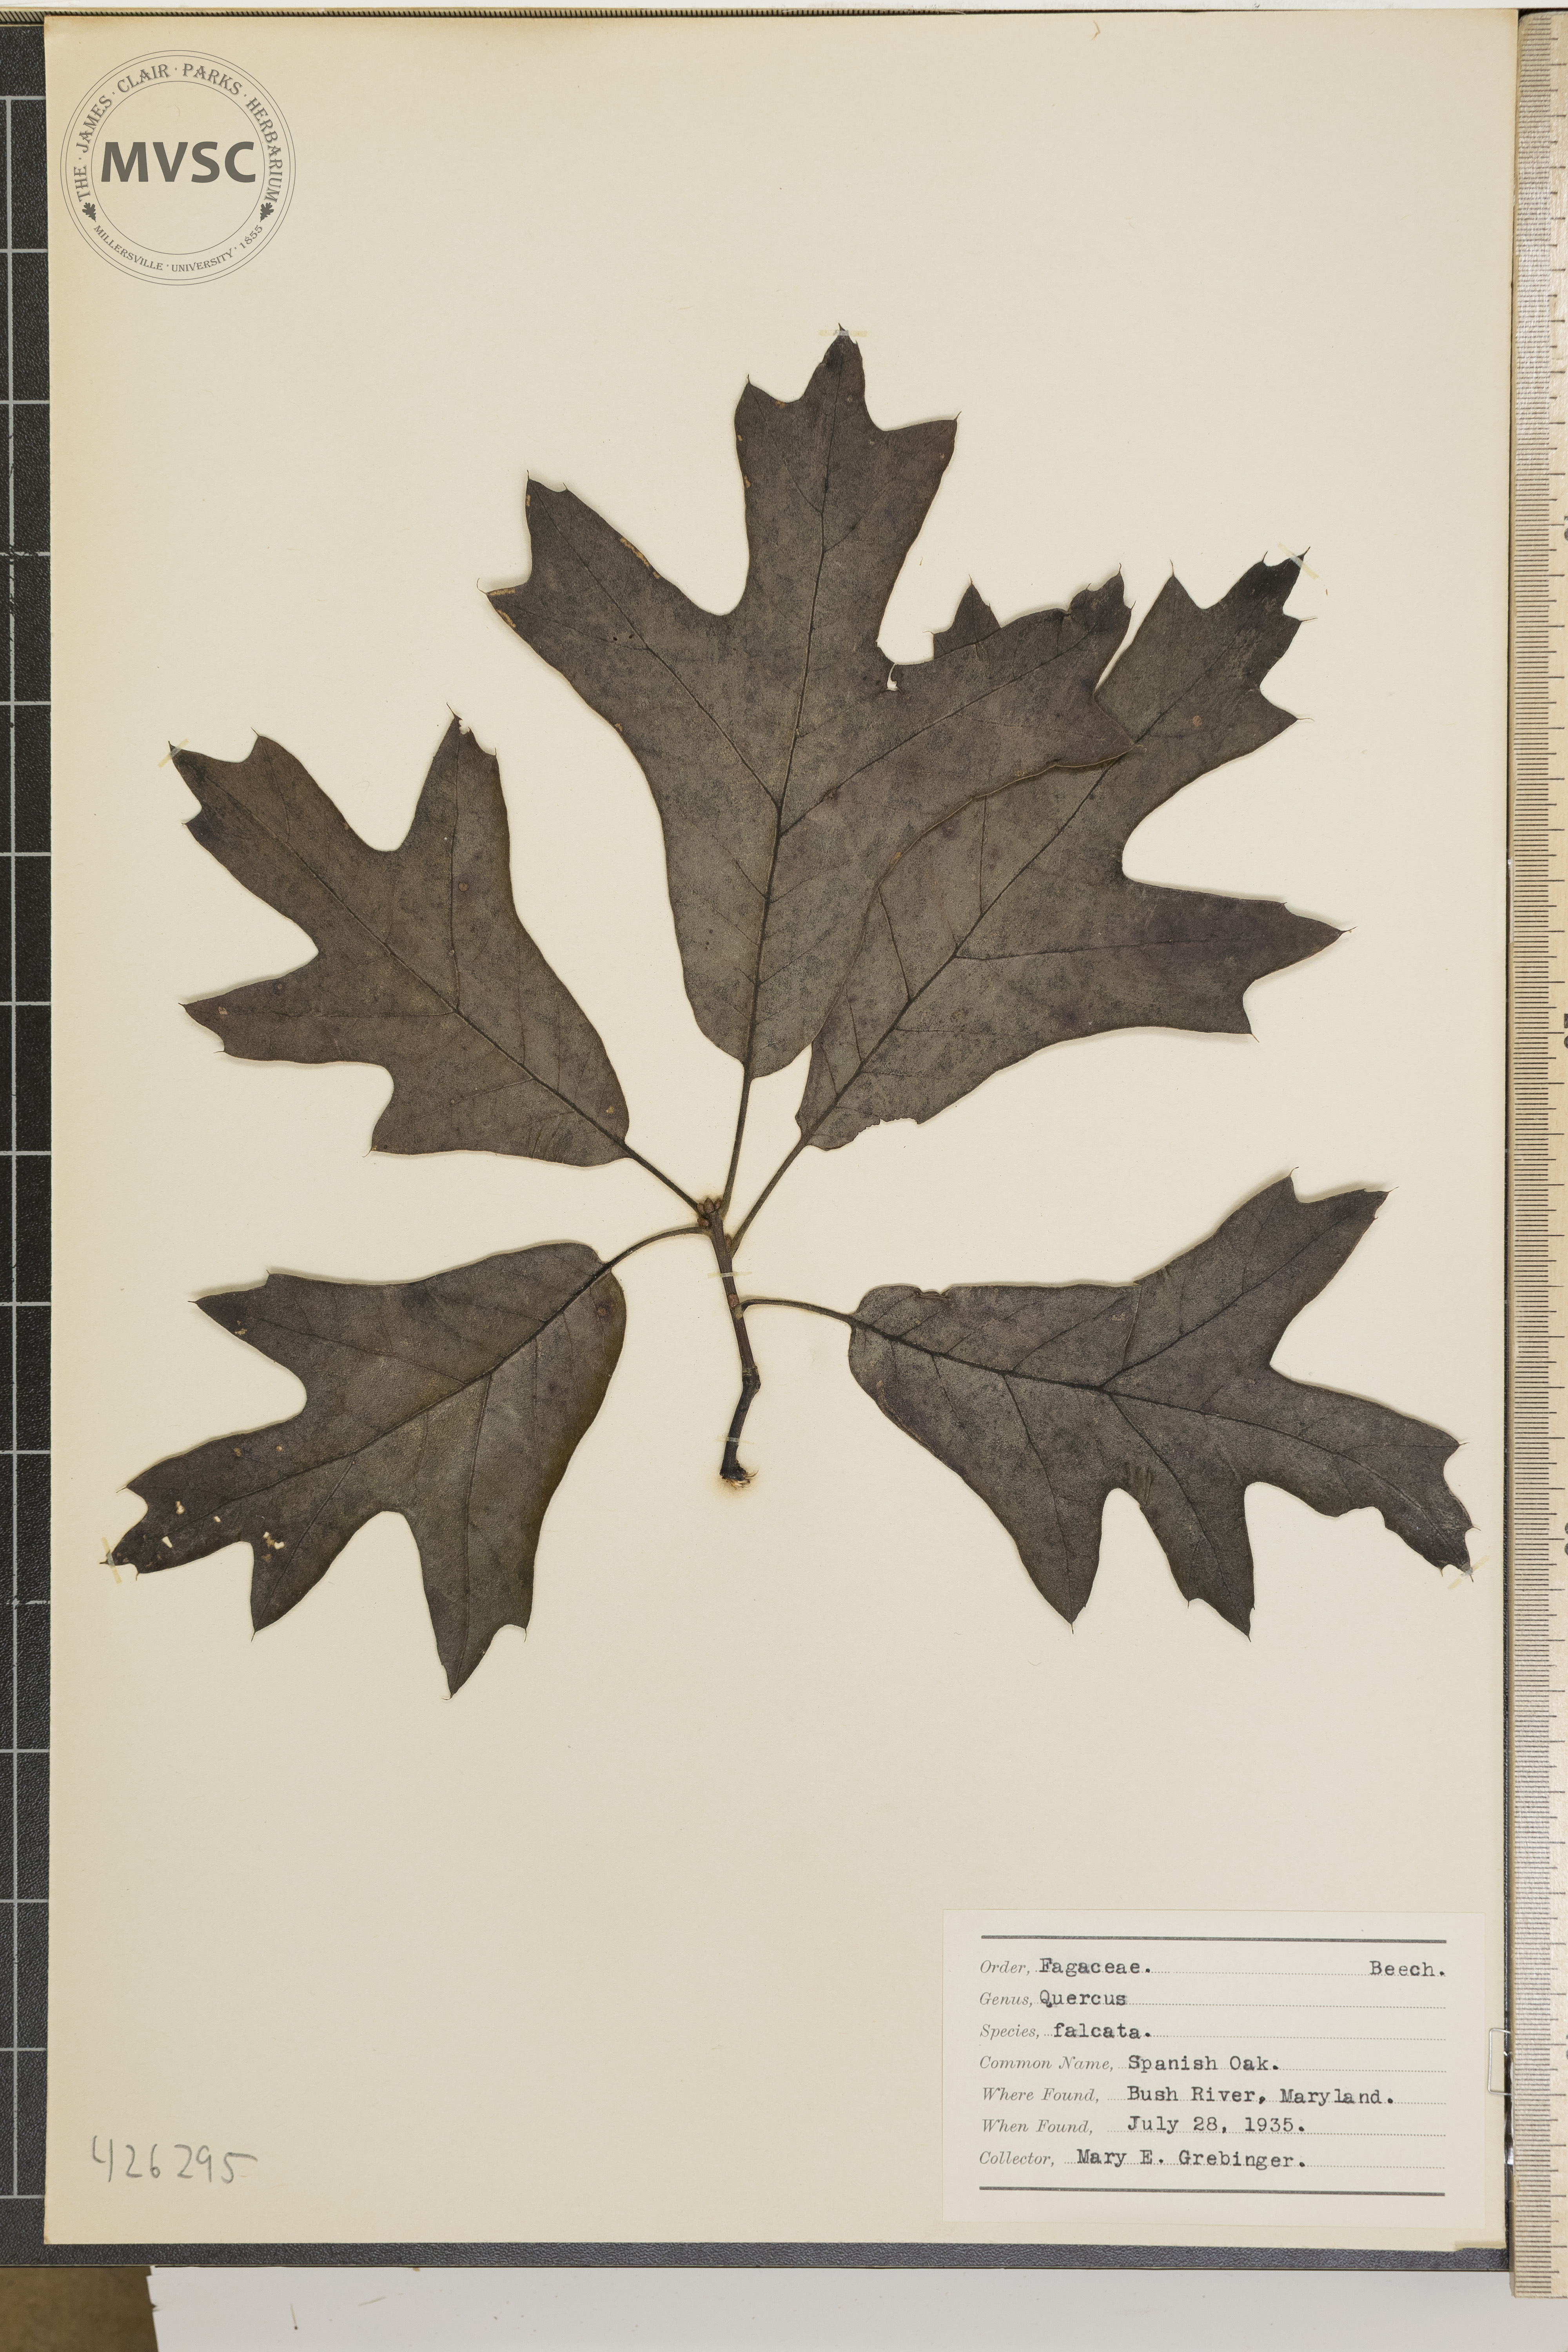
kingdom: Plantae
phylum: Tracheophyta
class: Magnoliopsida
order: Fagales
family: Fagaceae
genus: Quercus
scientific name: Quercus falcata
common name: Spanish Oak
